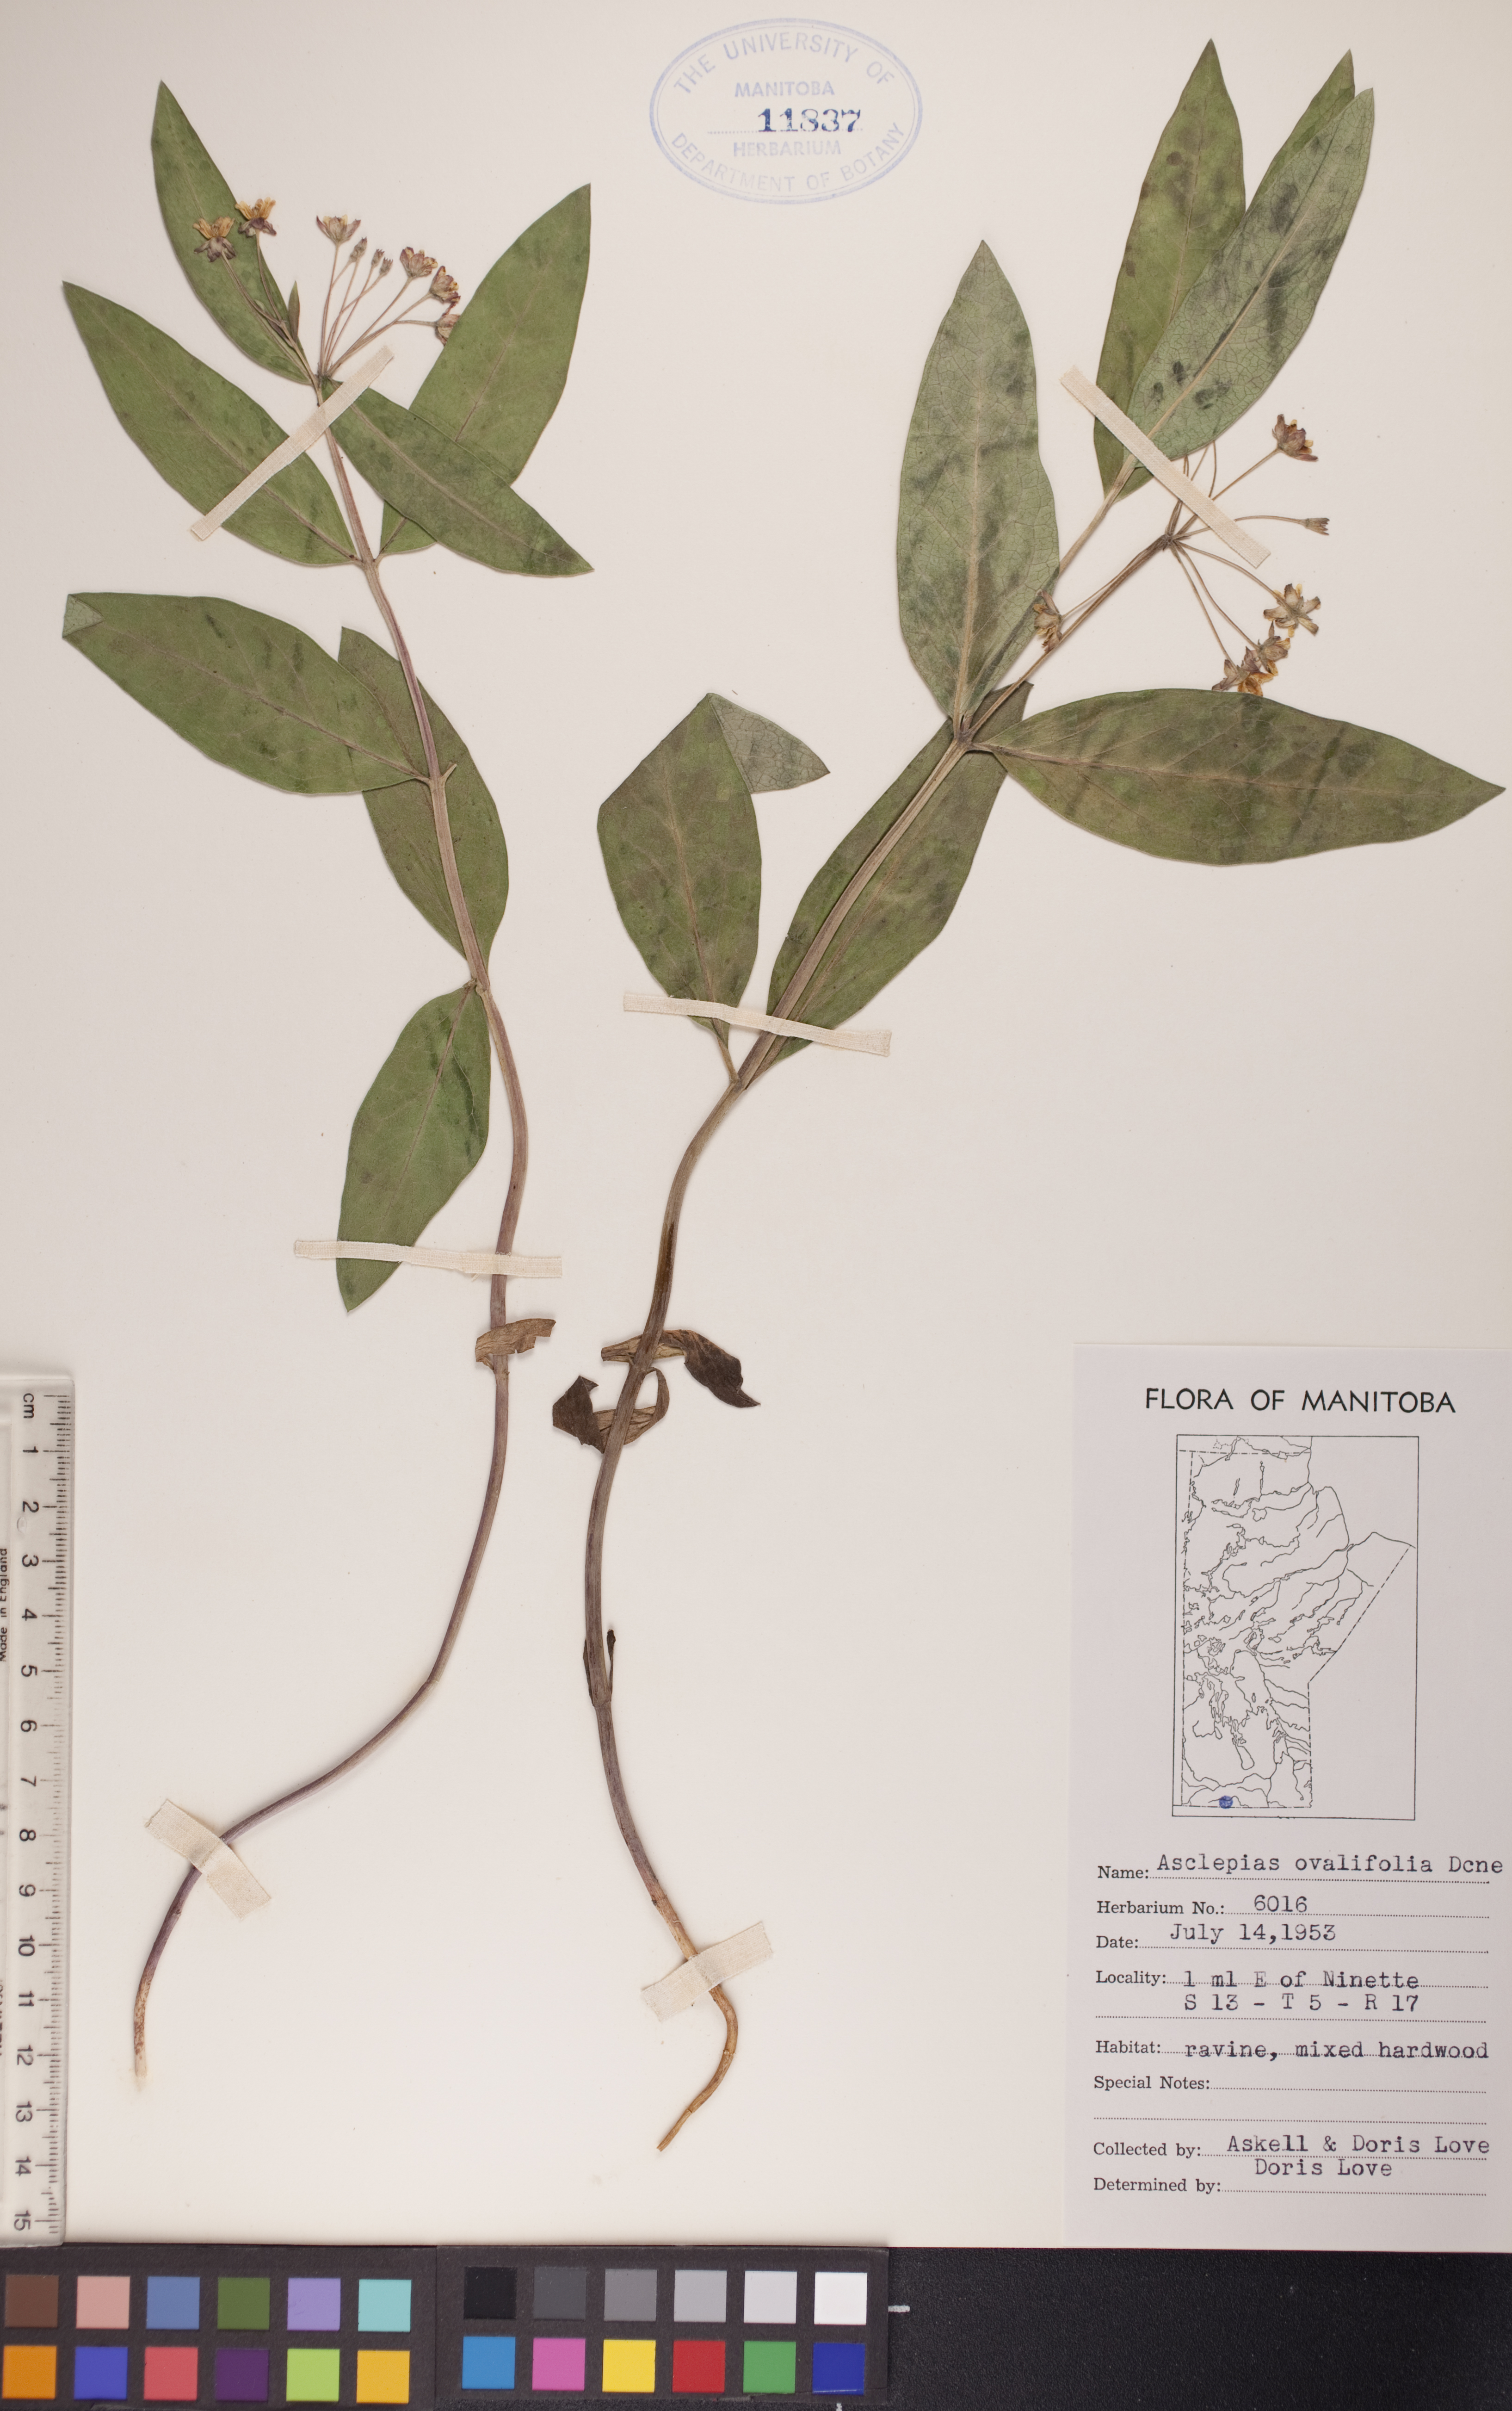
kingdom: Plantae
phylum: Tracheophyta
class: Magnoliopsida
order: Gentianales
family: Apocynaceae
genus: Asclepias
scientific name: Asclepias ovalifolia
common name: Dwarf milkweed
